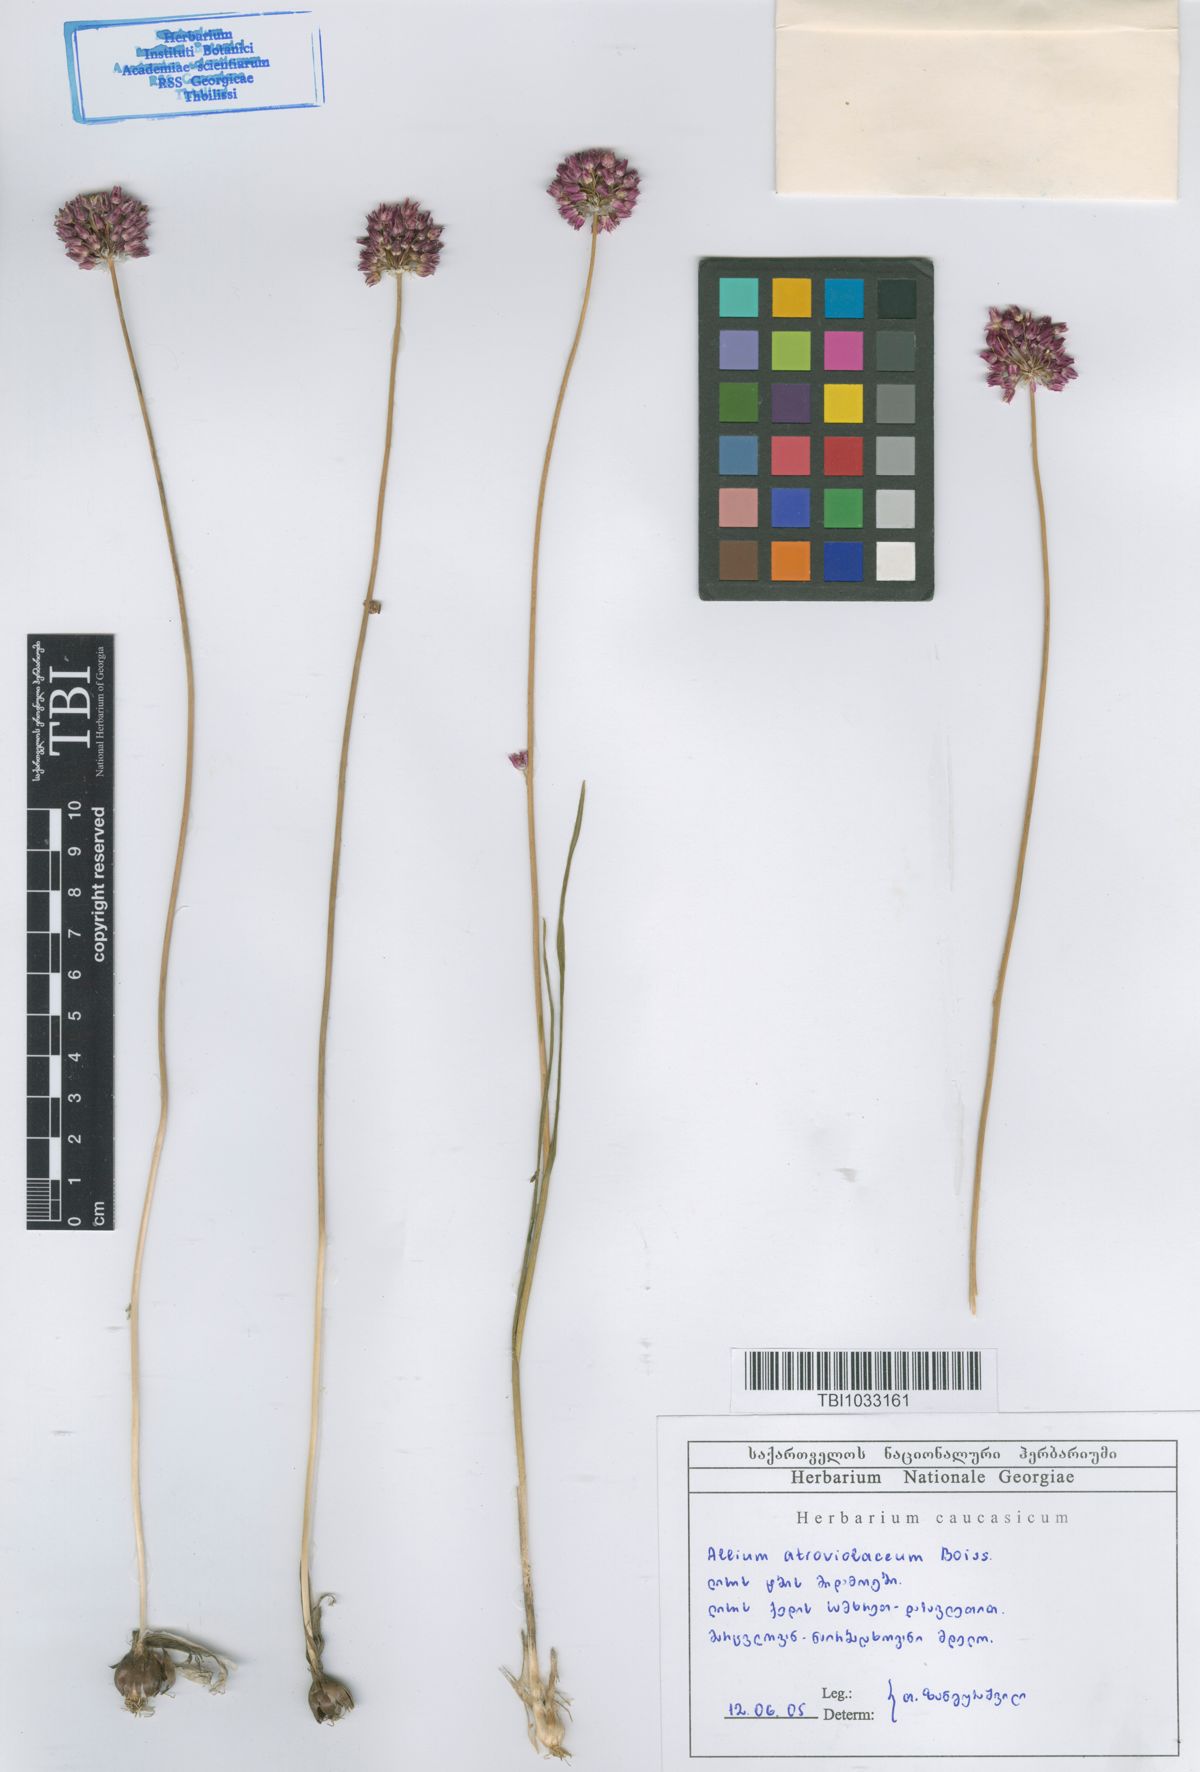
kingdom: Plantae
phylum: Tracheophyta
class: Liliopsida
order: Asparagales
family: Amaryllidaceae
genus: Allium
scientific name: Allium atroviolaceum
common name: Broadleaf wild leek
